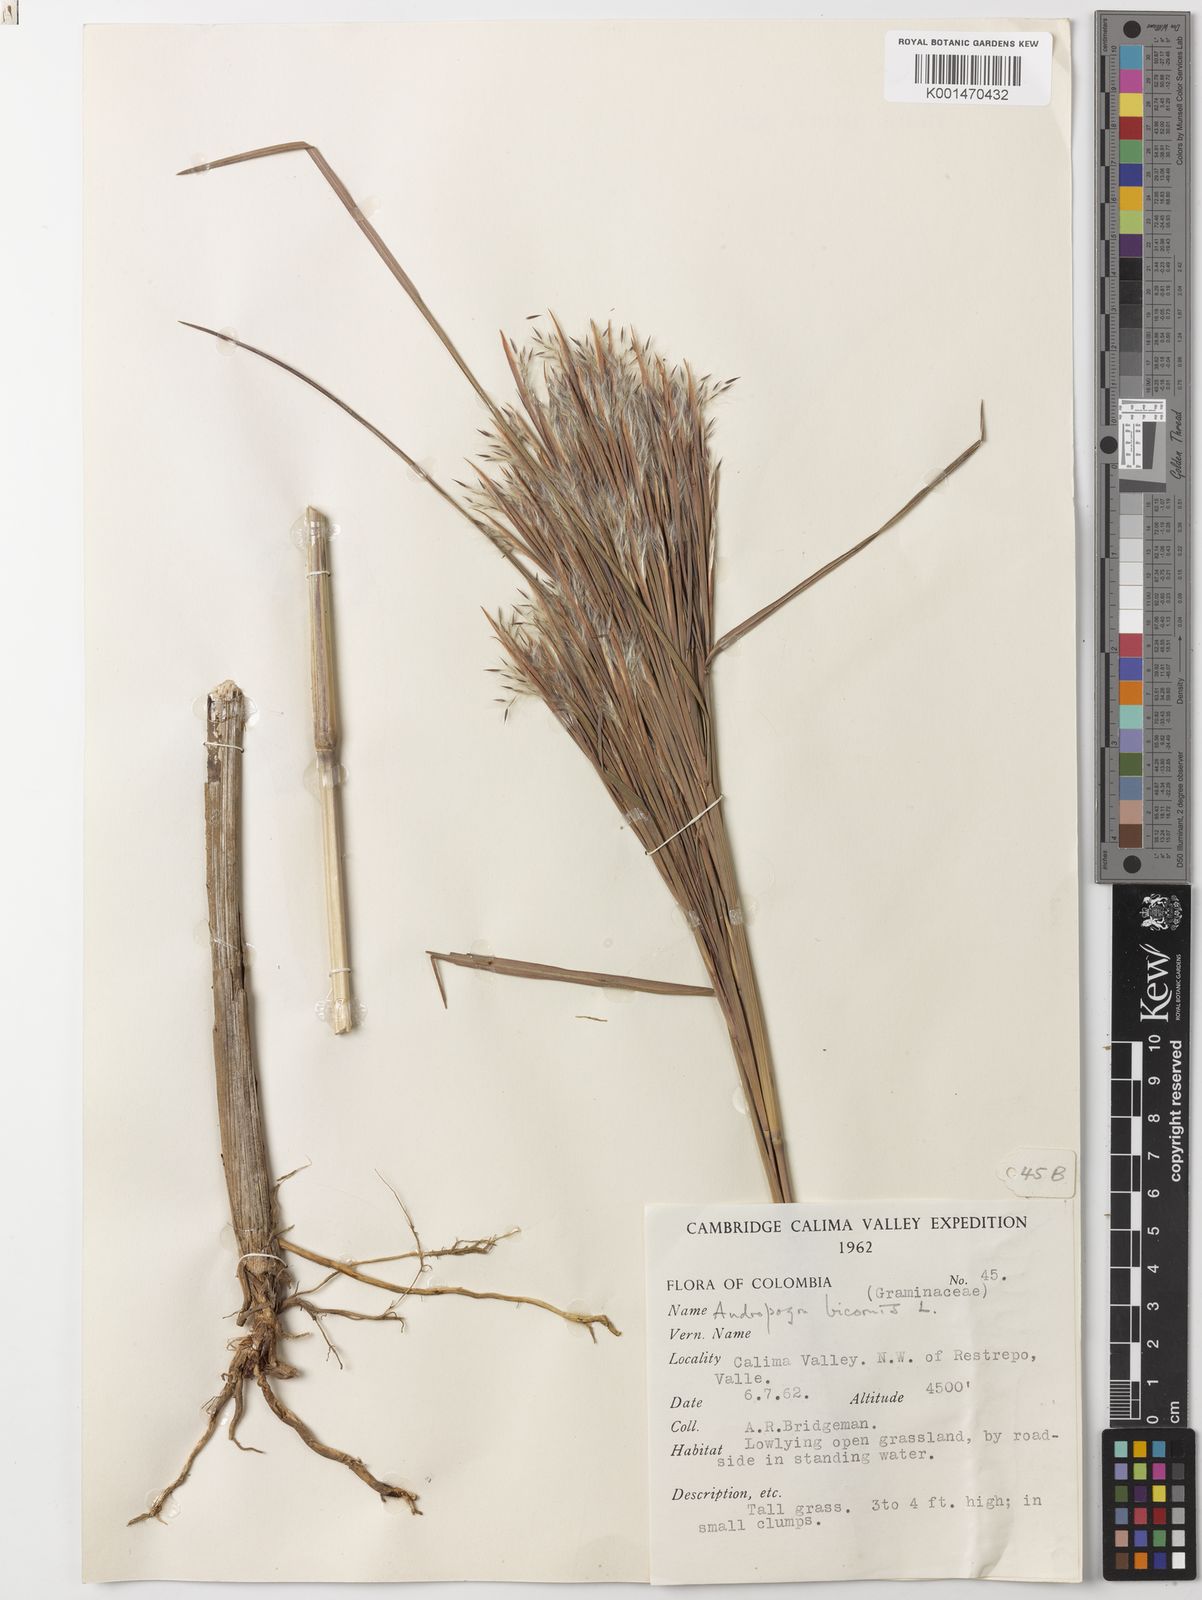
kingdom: Plantae
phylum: Tracheophyta
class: Liliopsida
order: Poales
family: Poaceae
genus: Andropogon
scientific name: Andropogon bicornis
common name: West indian foxtail grass
